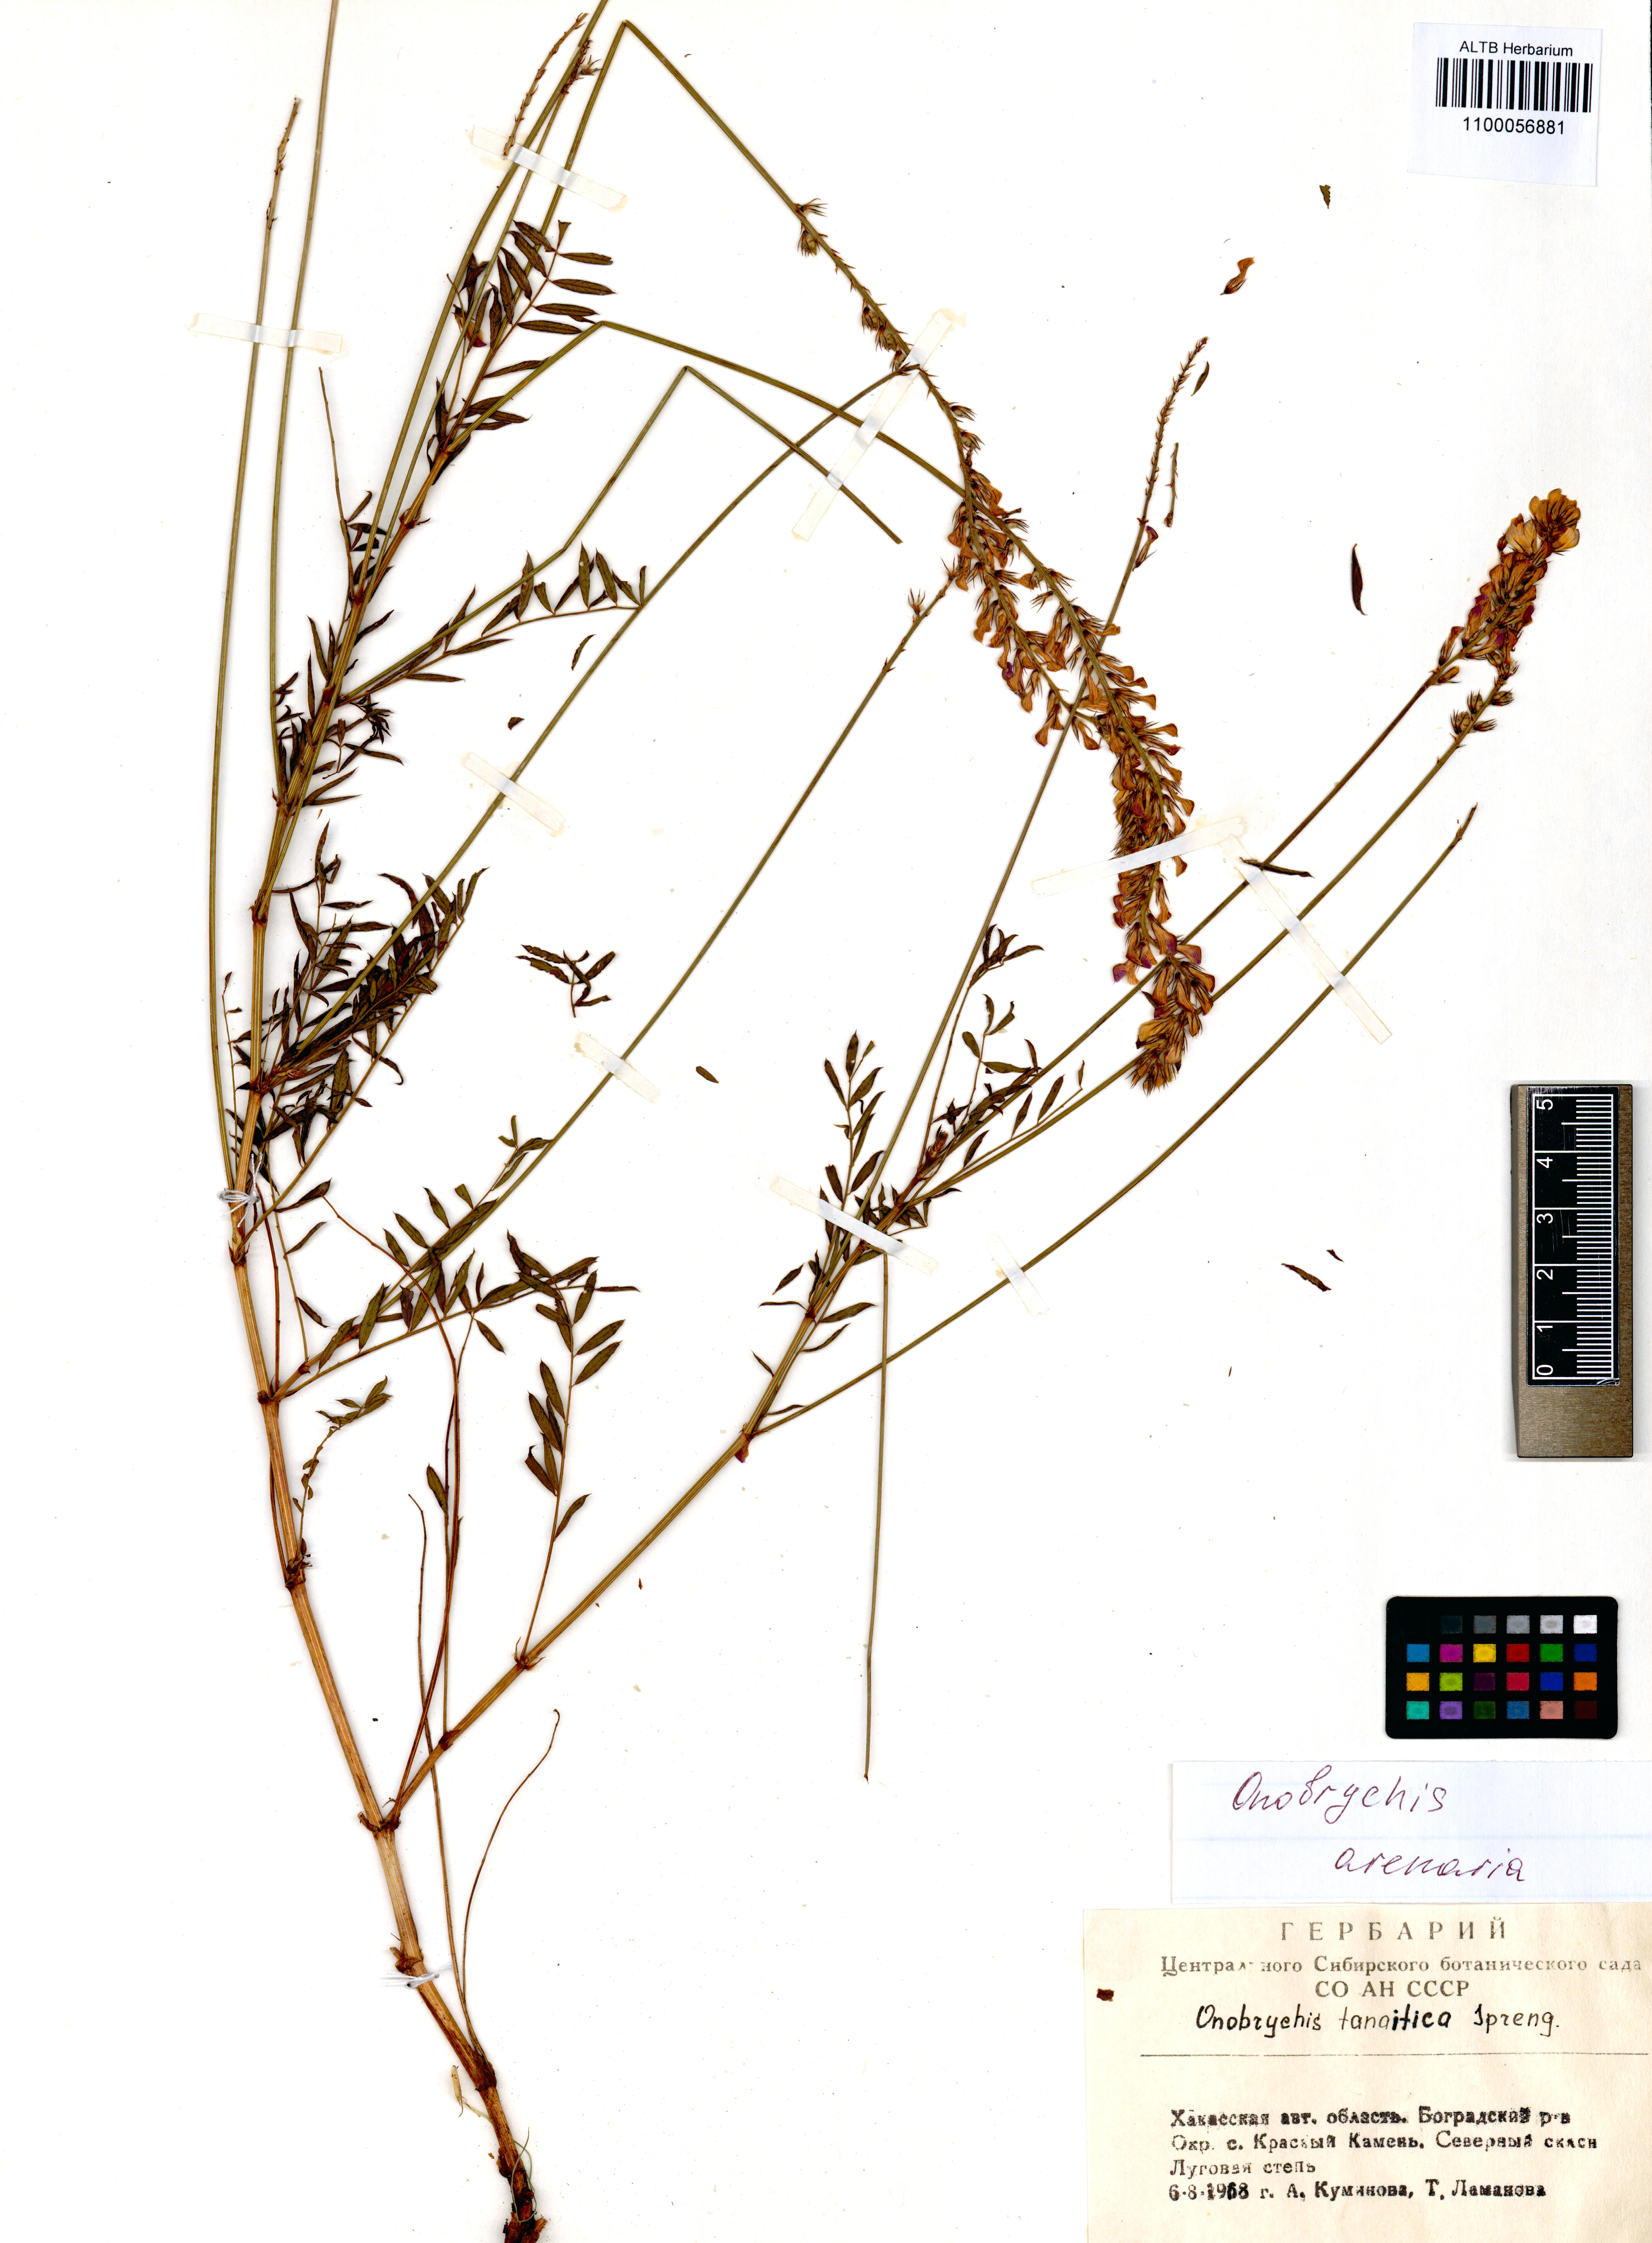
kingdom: Plantae
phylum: Tracheophyta
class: Magnoliopsida
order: Fabales
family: Fabaceae
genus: Onobrychis
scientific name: Onobrychis arenaria
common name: Sand esparcet
